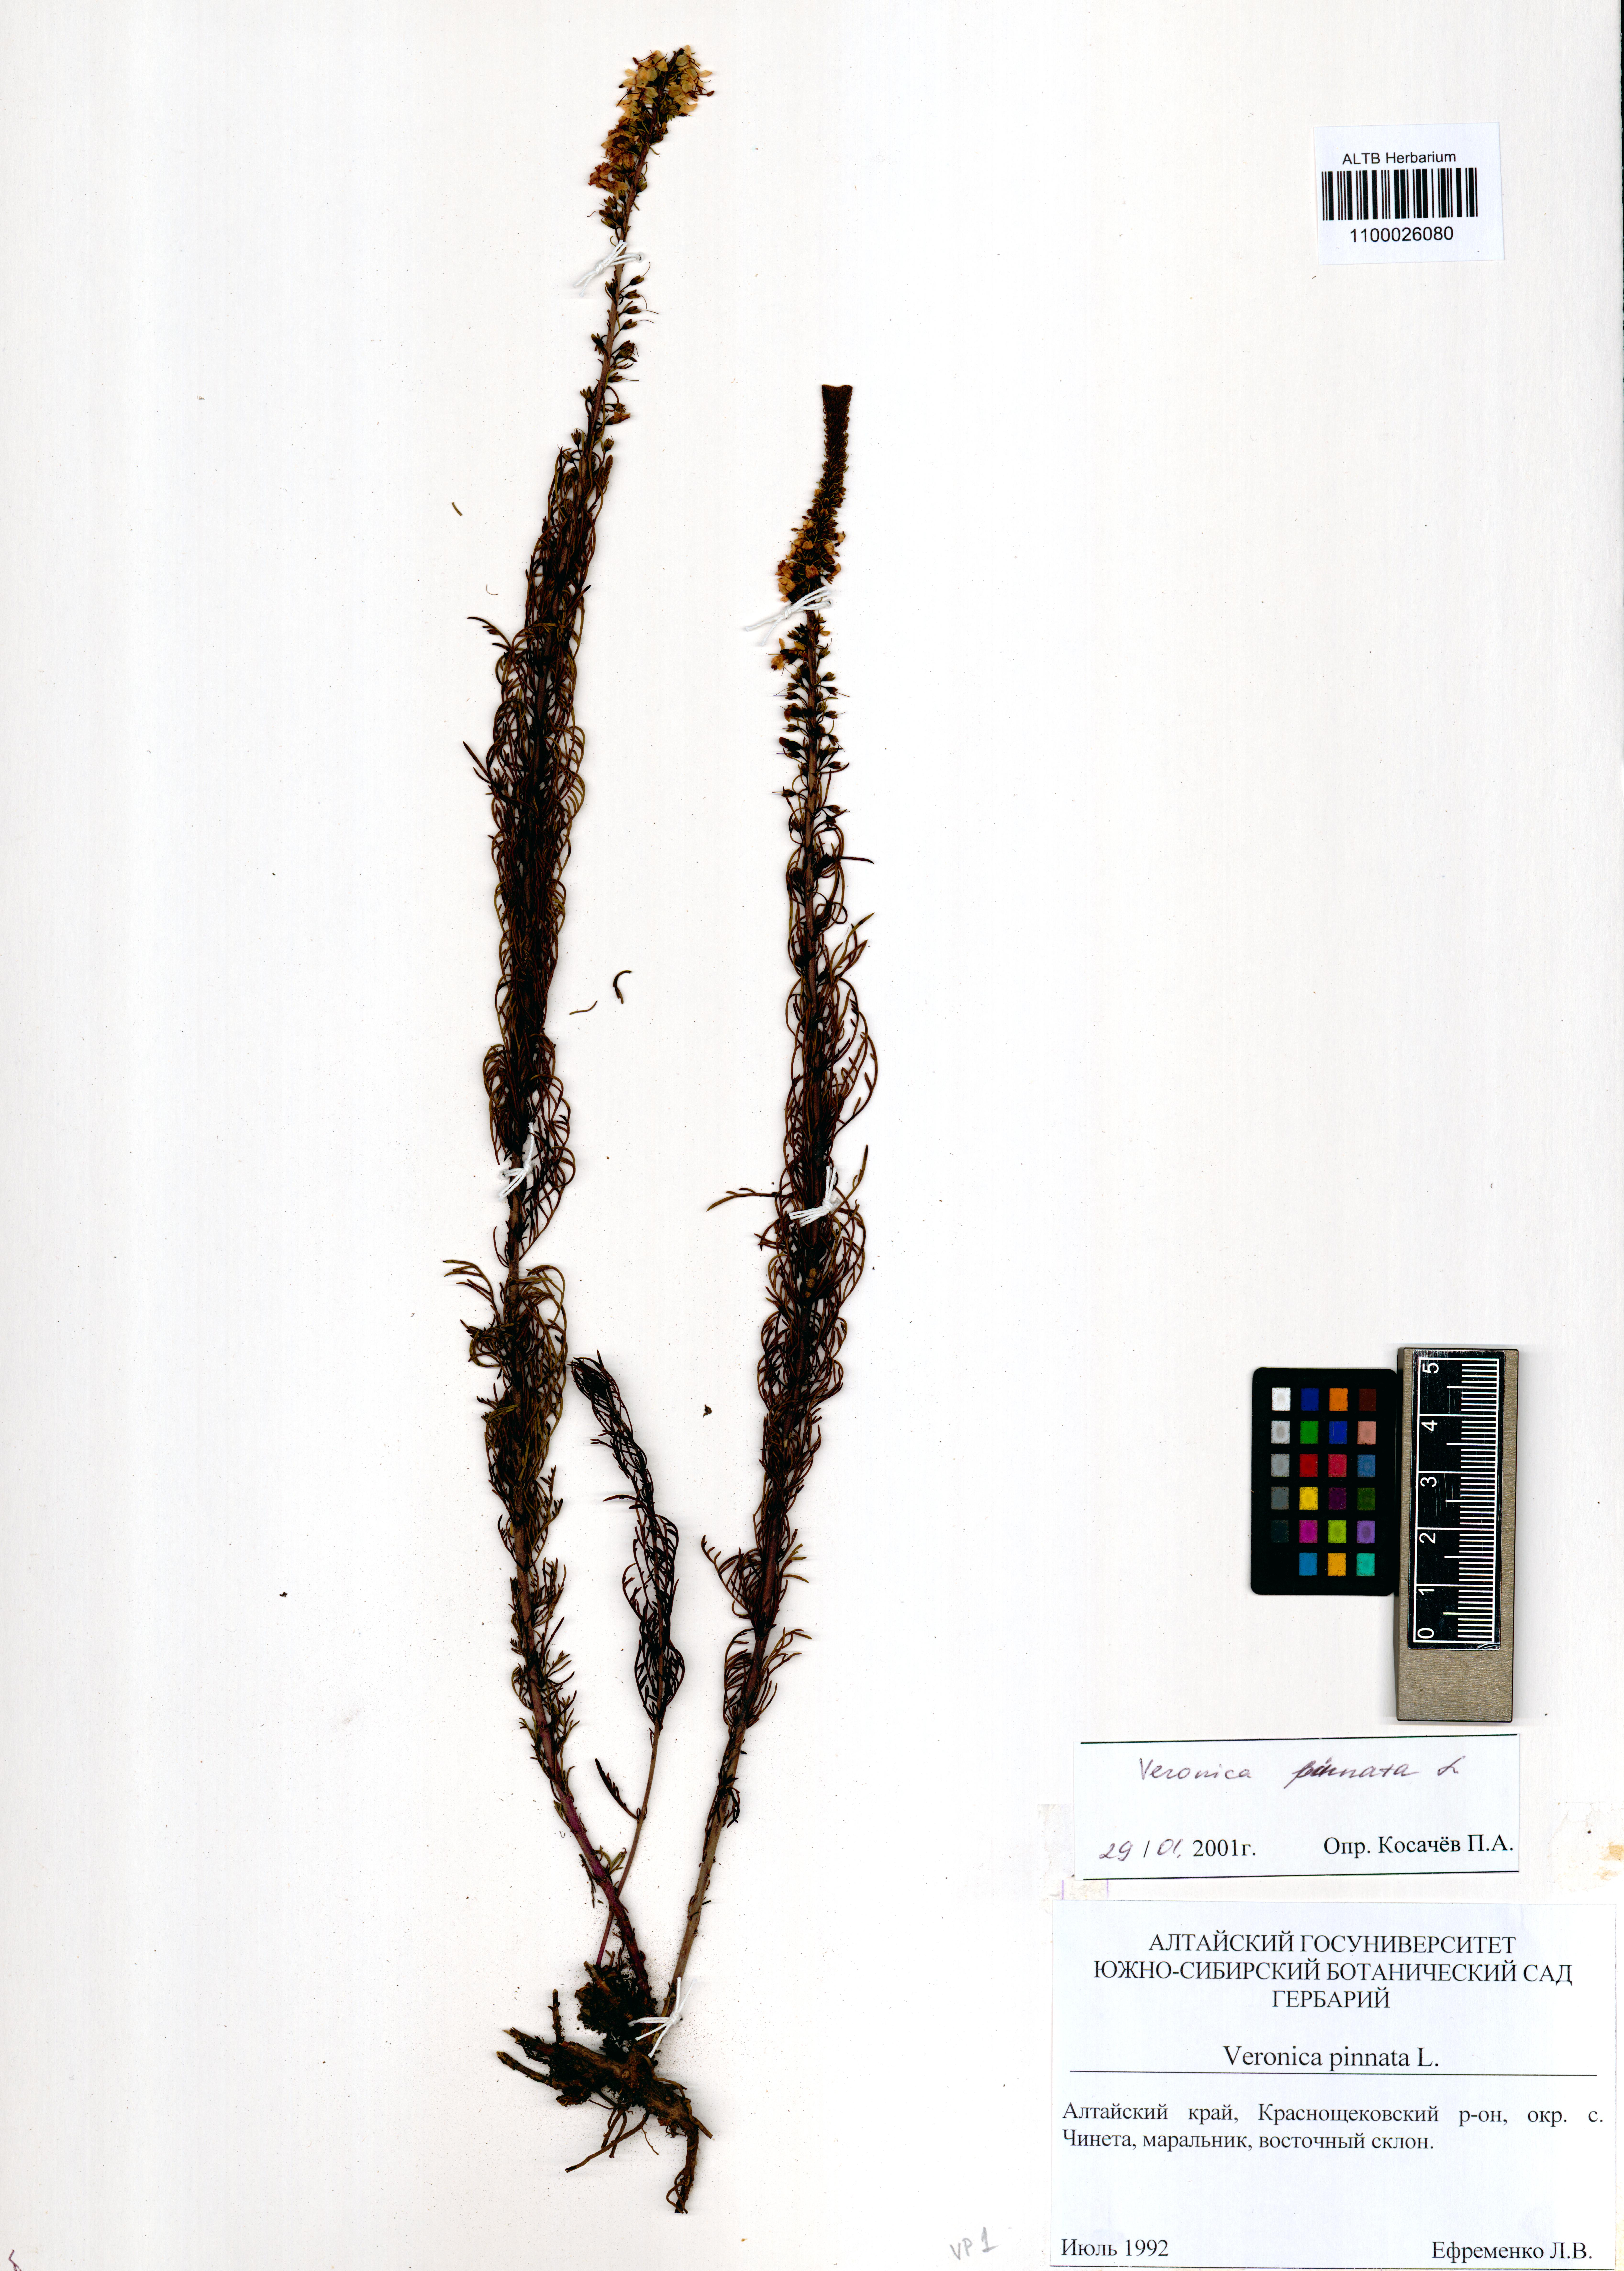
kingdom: Plantae
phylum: Tracheophyta
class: Magnoliopsida
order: Lamiales
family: Plantaginaceae
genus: Veronica
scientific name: Veronica pinnata
